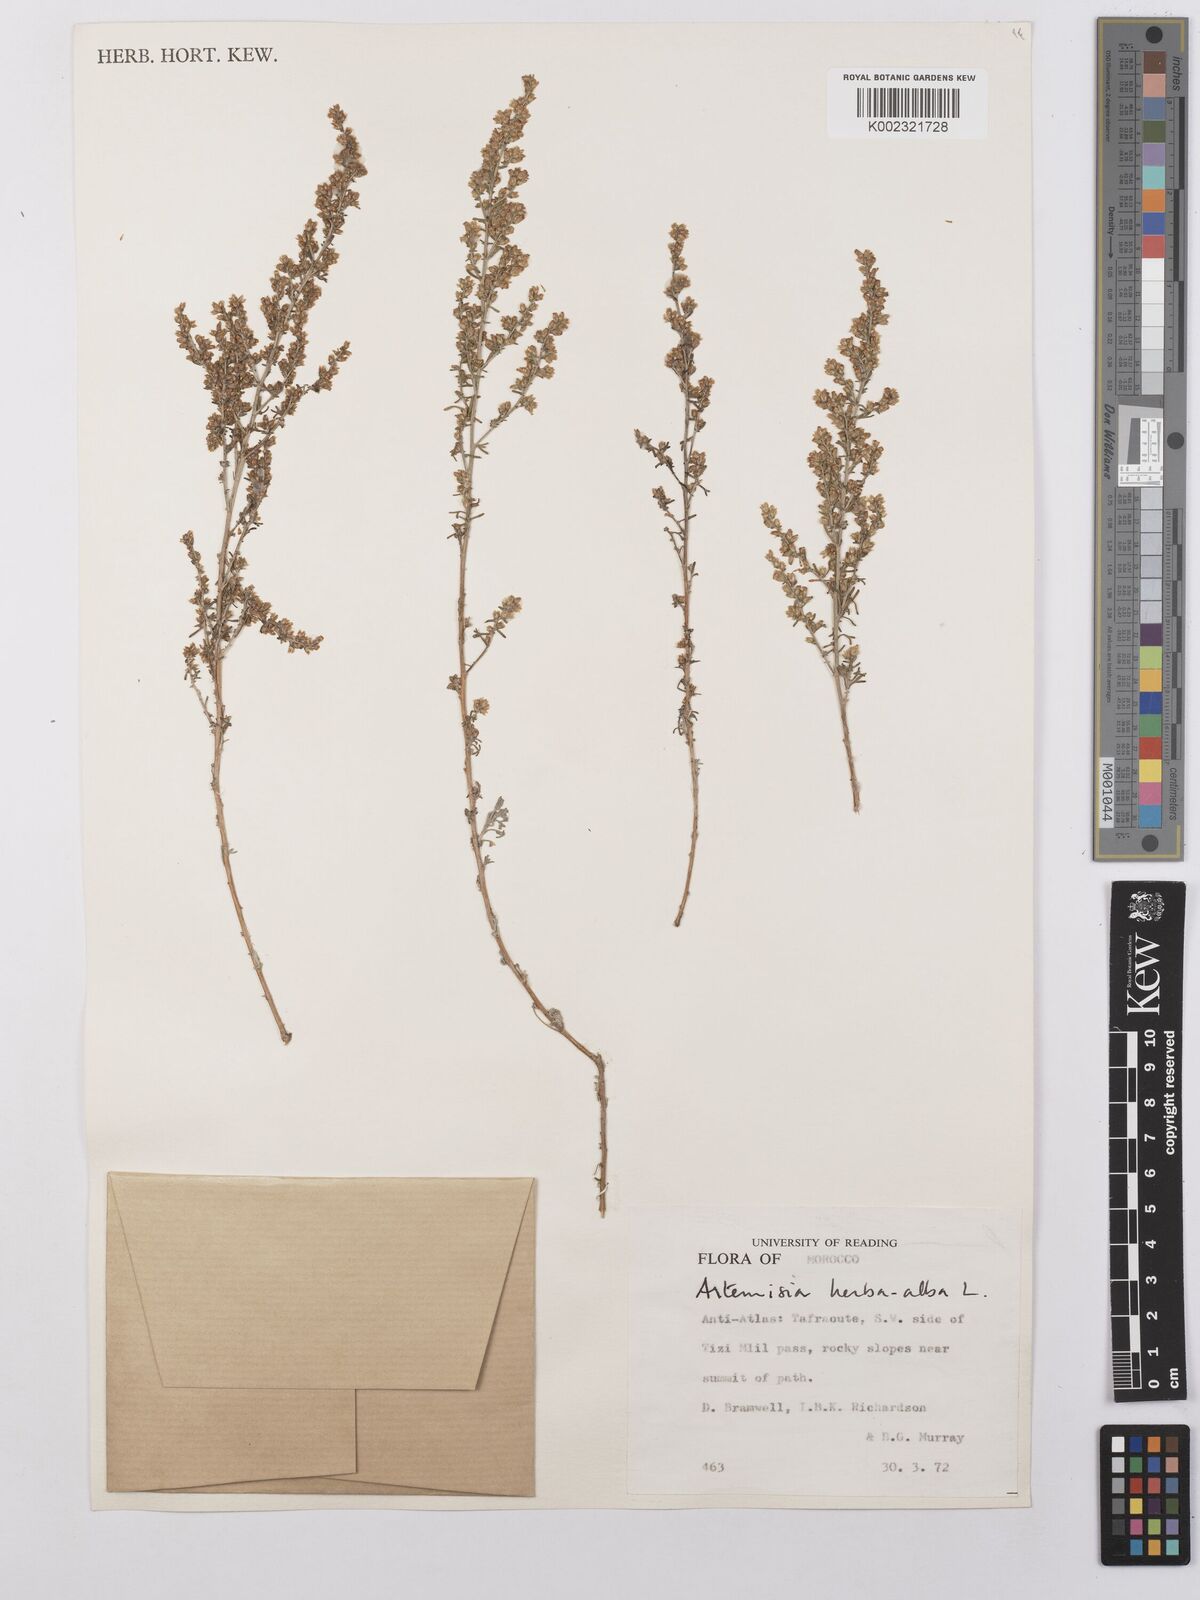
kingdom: Plantae
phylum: Tracheophyta
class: Magnoliopsida
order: Asterales
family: Asteraceae
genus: Artemisia
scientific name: Artemisia herba-alba
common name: White wormwood
